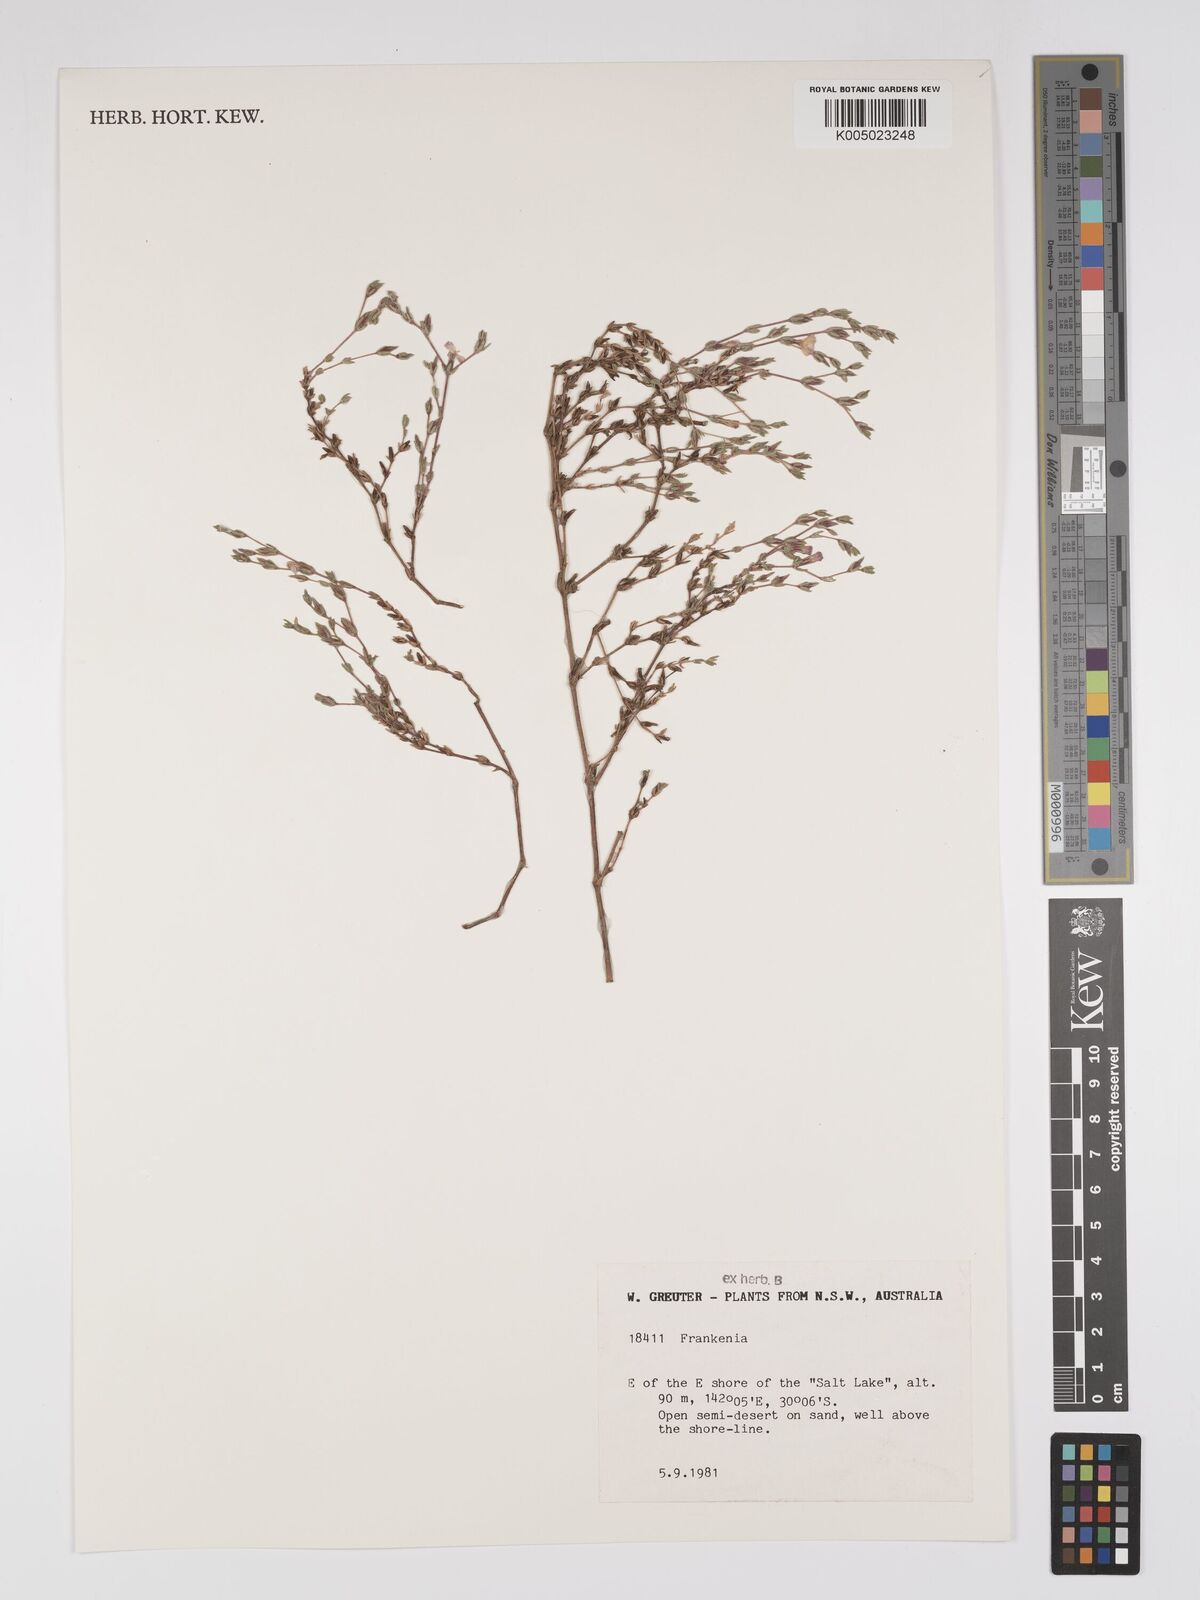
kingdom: Plantae
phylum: Tracheophyta
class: Magnoliopsida
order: Caryophyllales
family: Frankeniaceae
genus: Frankenia
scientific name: Frankenia
